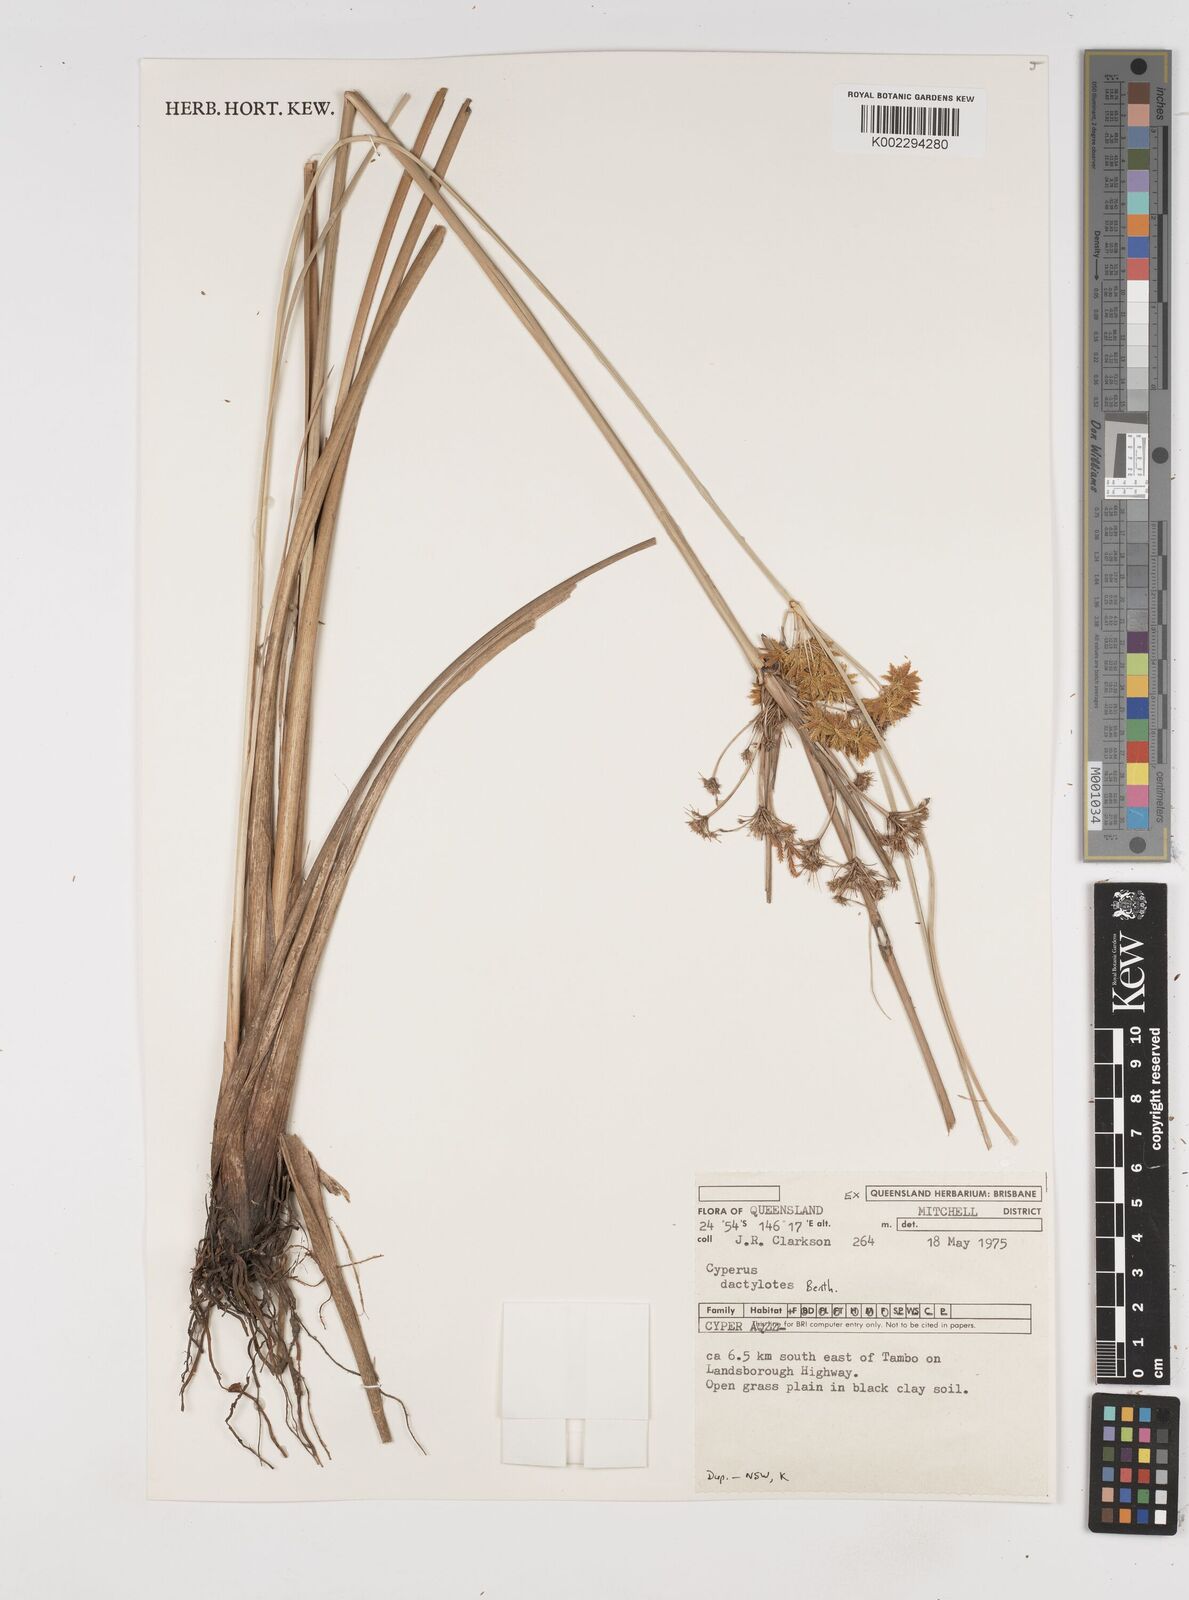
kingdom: Plantae
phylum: Tracheophyta
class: Liliopsida
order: Poales
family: Cyperaceae
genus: Cyperus
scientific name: Cyperus dactylotes
